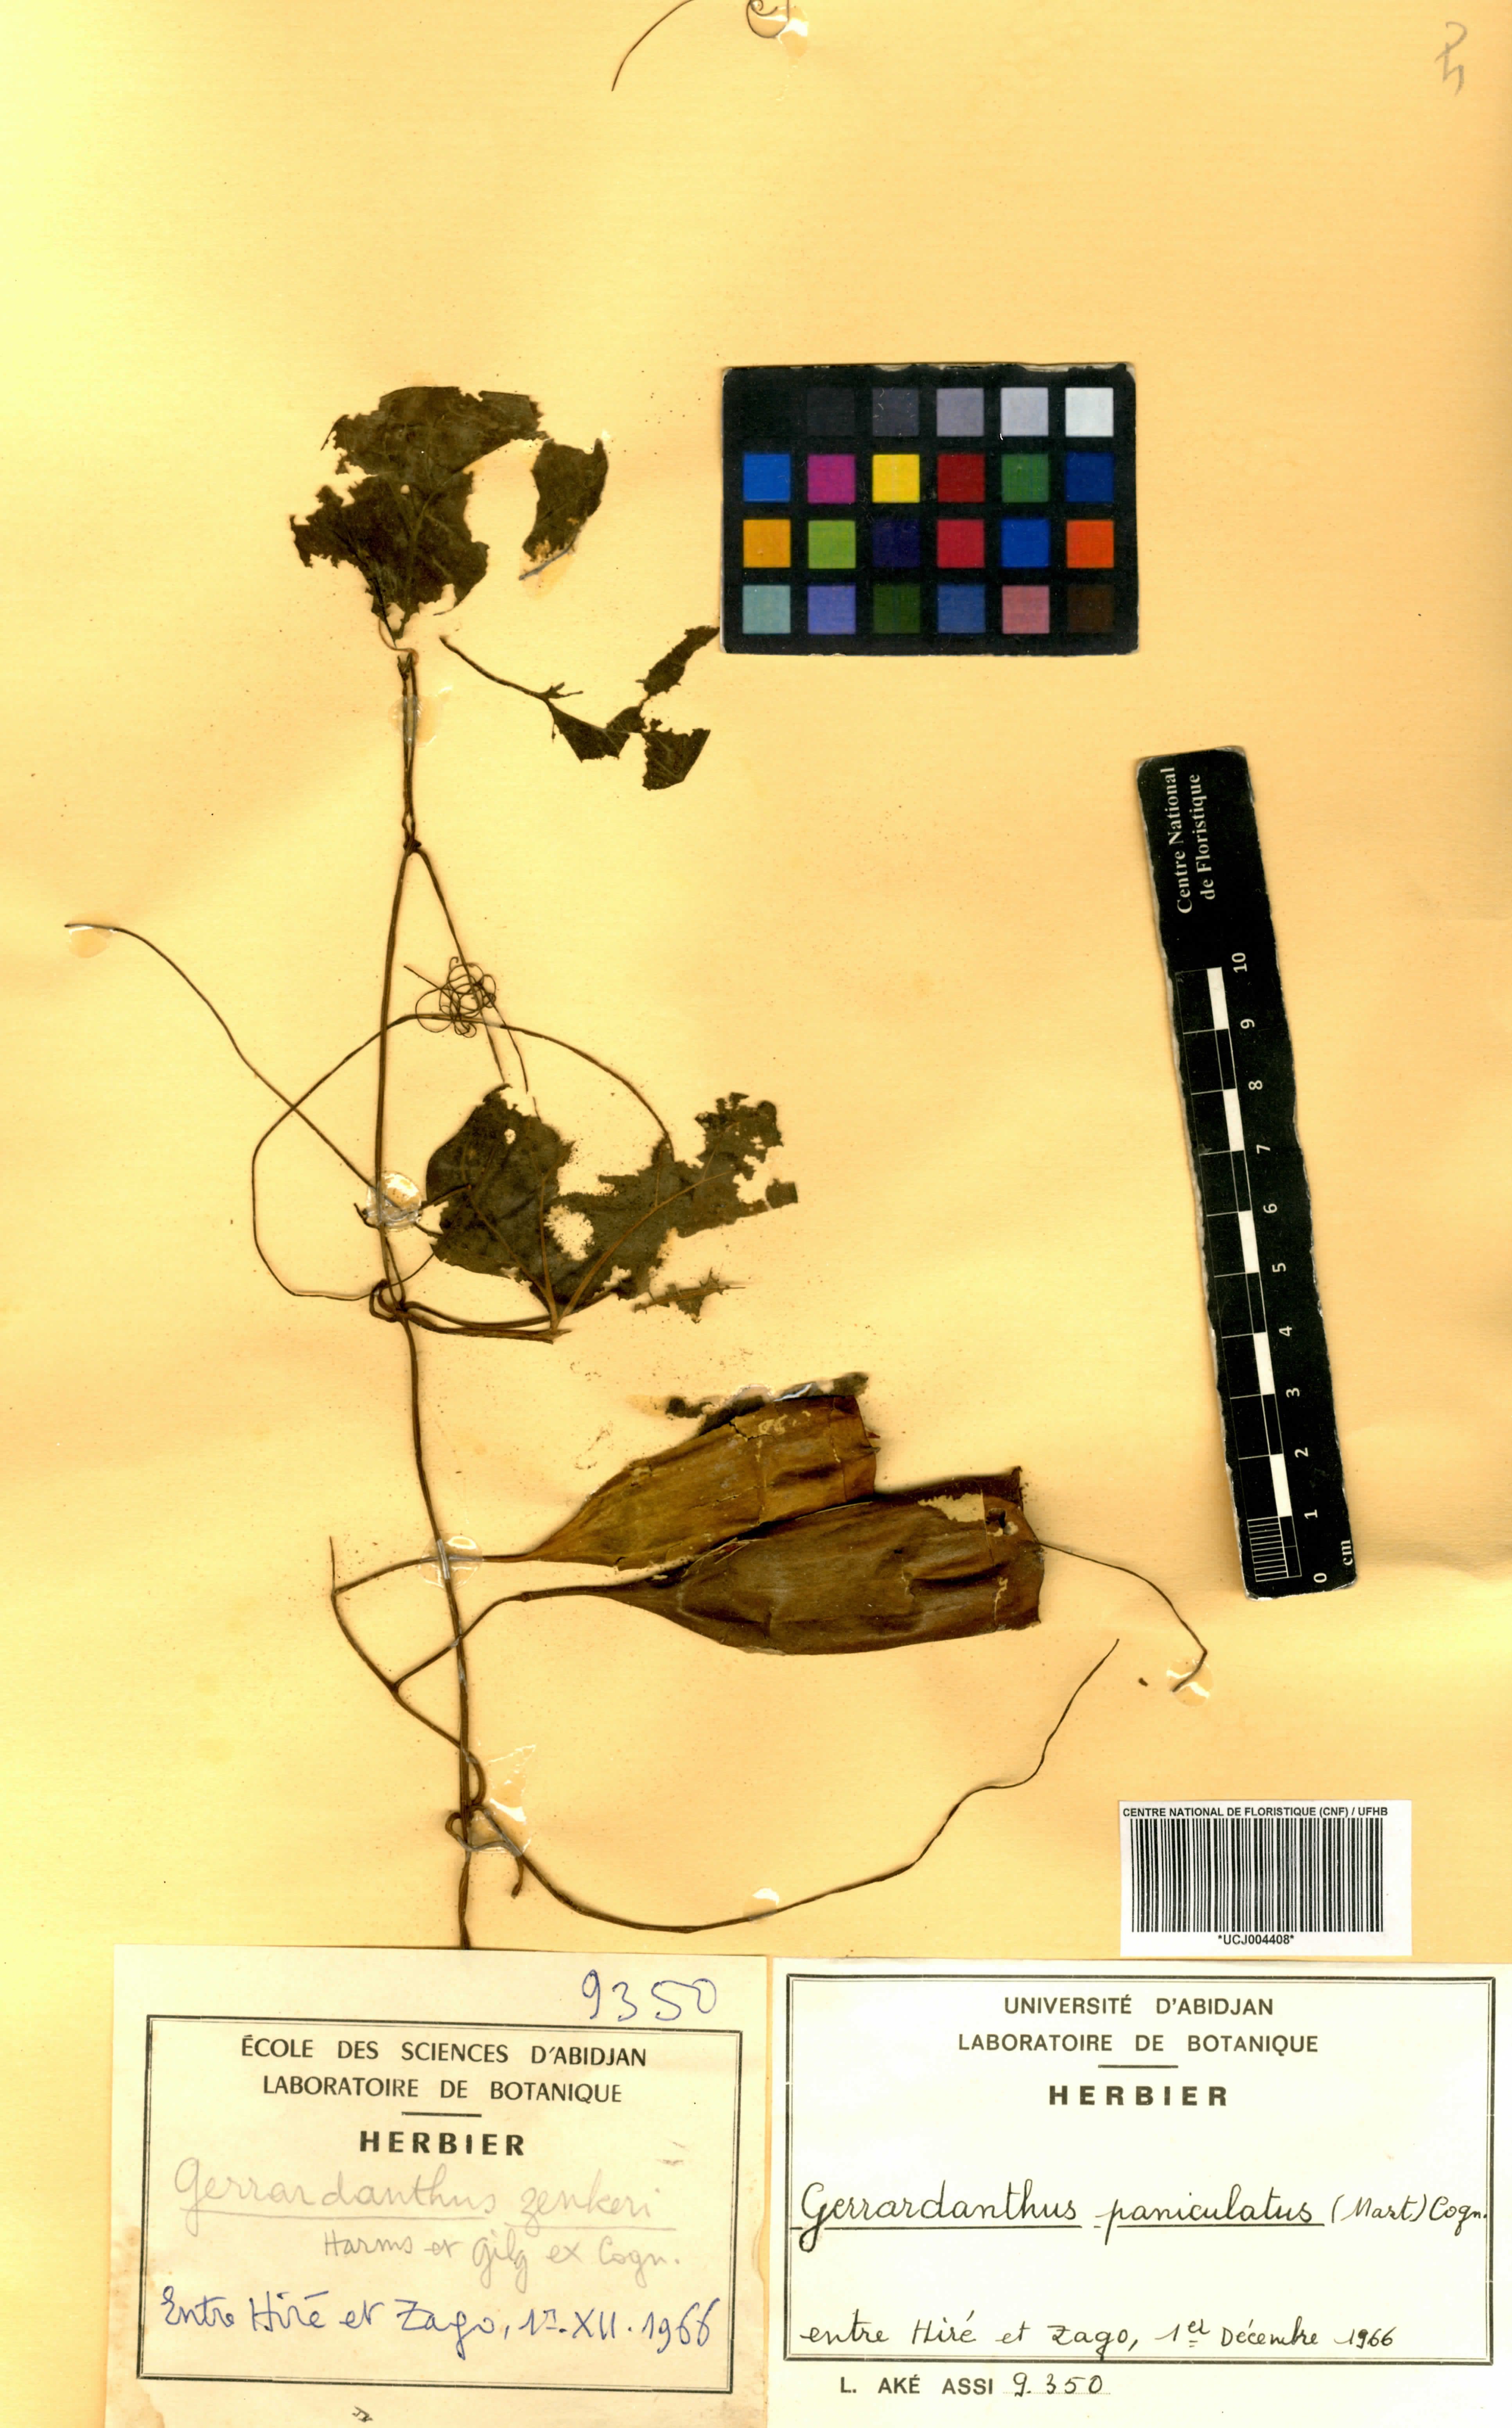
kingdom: Plantae
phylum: Tracheophyta
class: Magnoliopsida
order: Cucurbitales
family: Cucurbitaceae
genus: Gerrardanthus
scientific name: Gerrardanthus paniculatus
